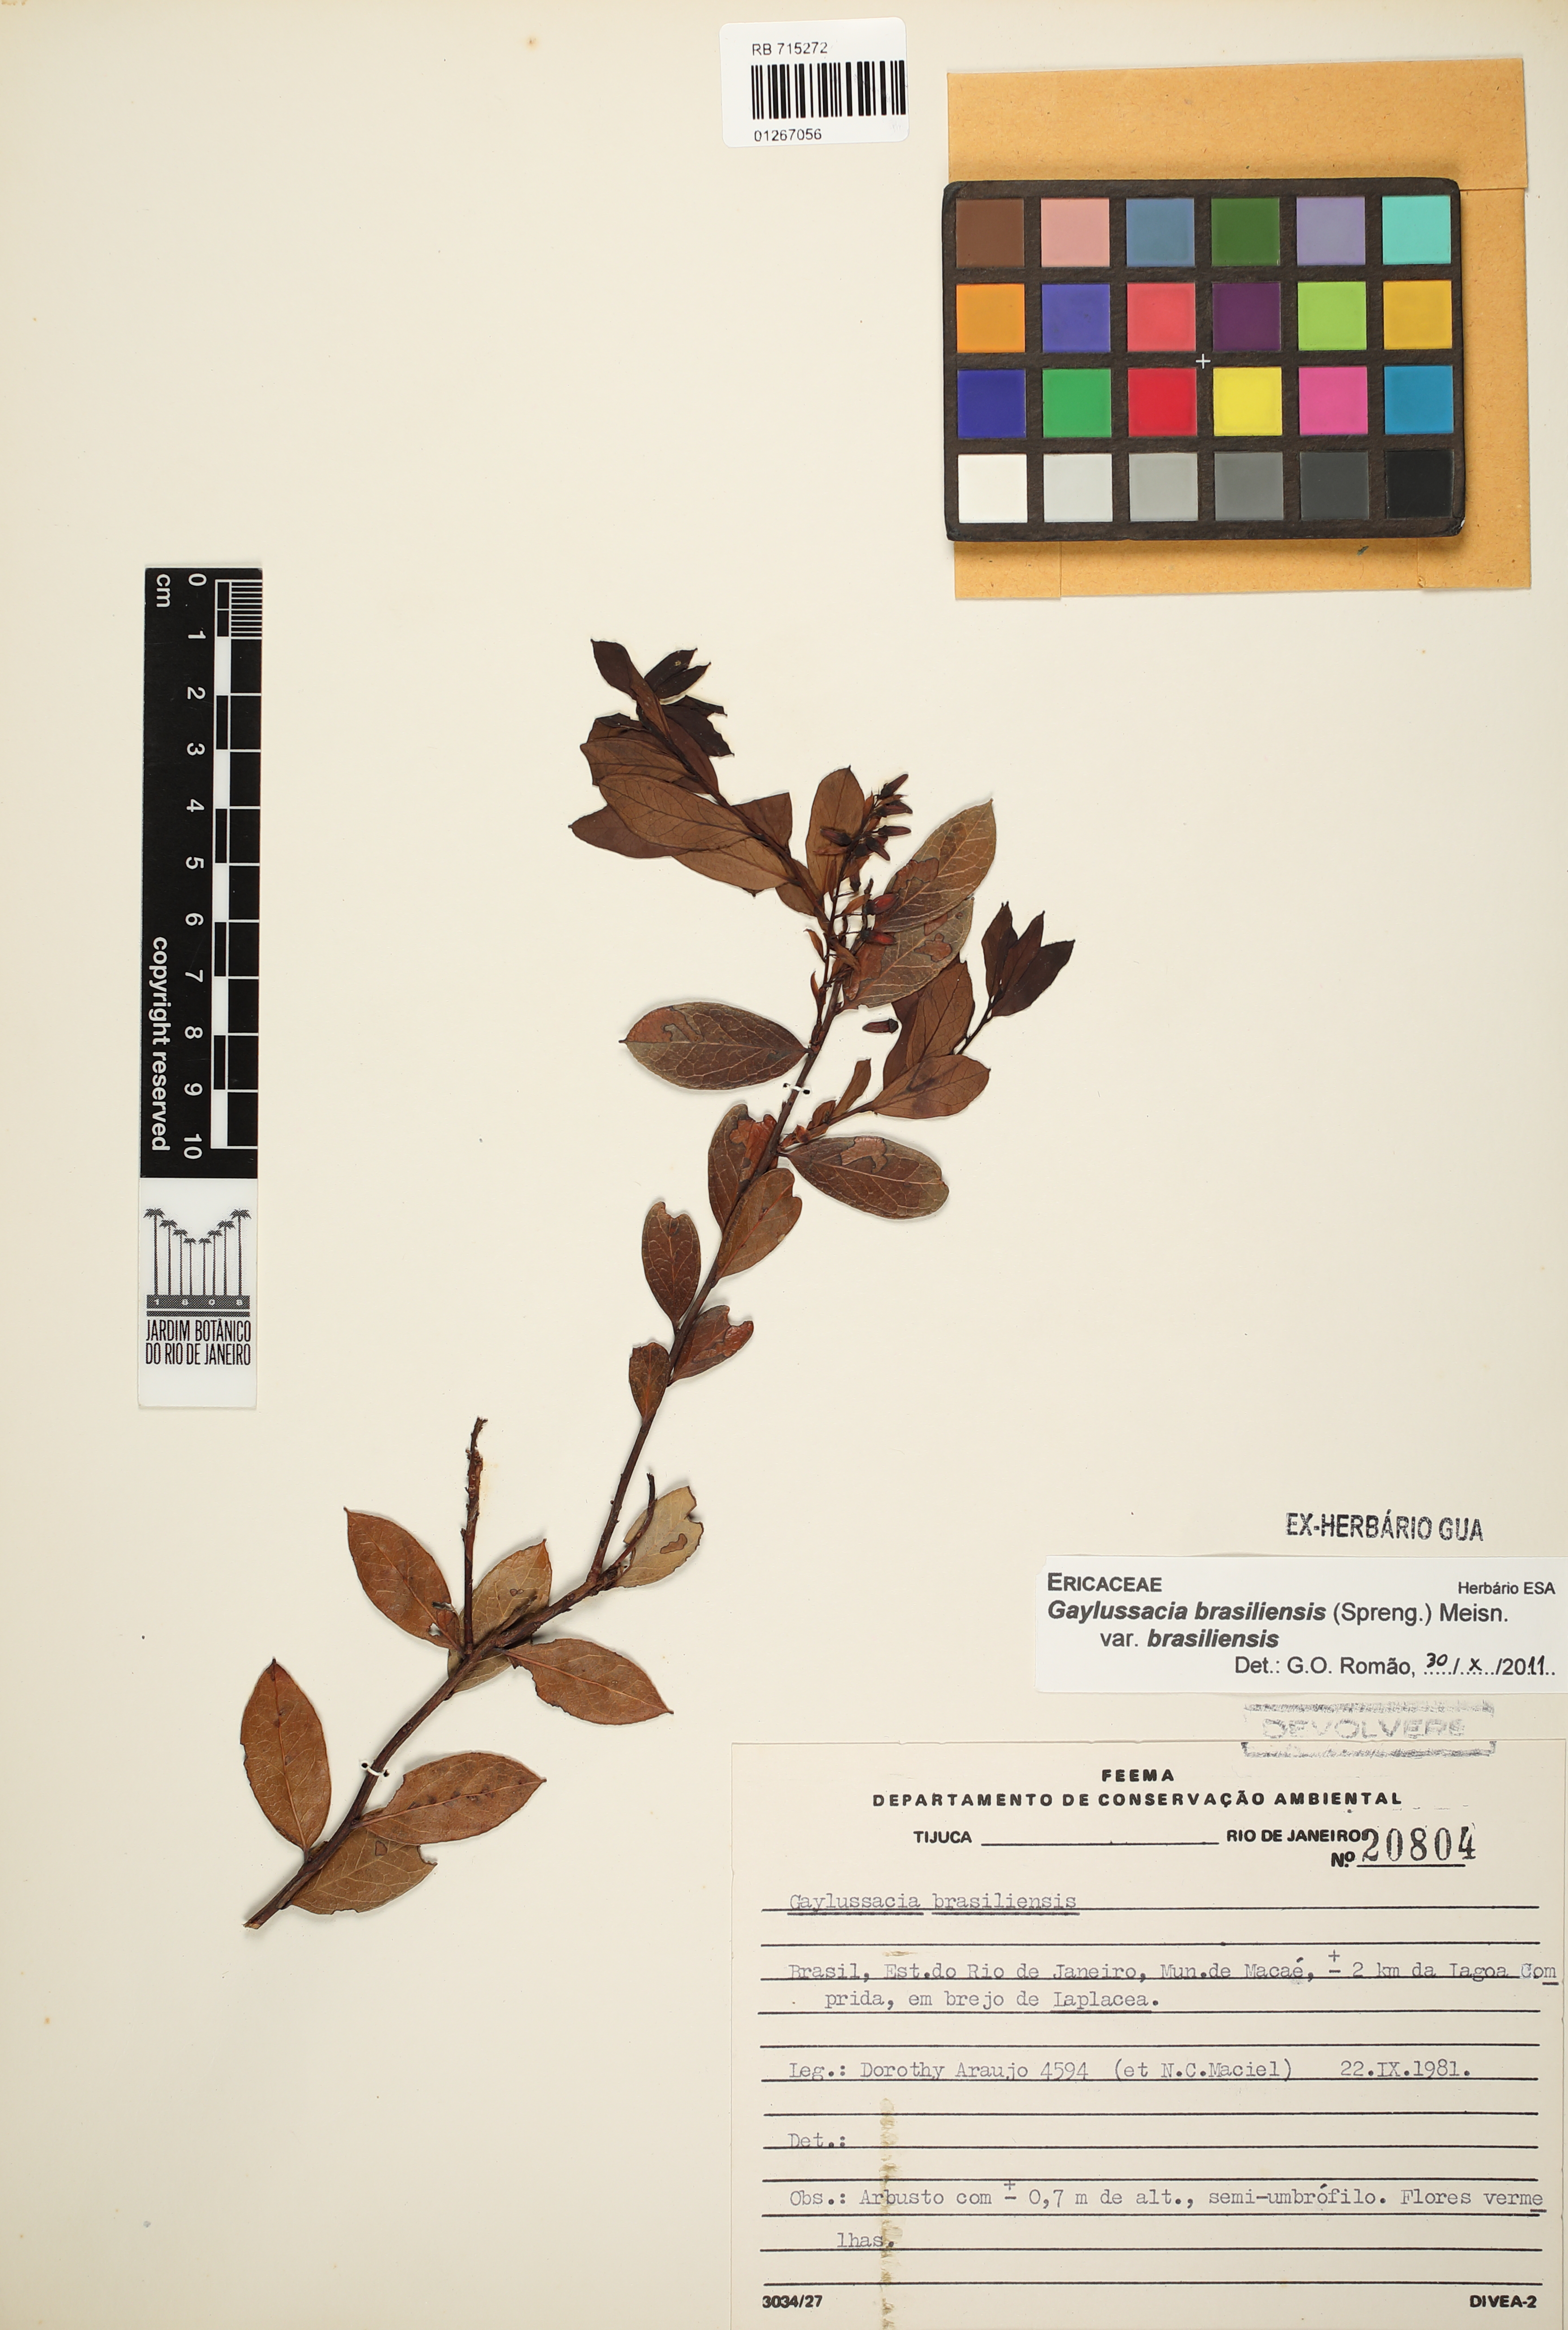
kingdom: Plantae
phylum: Tracheophyta
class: Magnoliopsida
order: Ericales
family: Ericaceae
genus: Gaylussacia
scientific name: Gaylussacia brasiliensis
